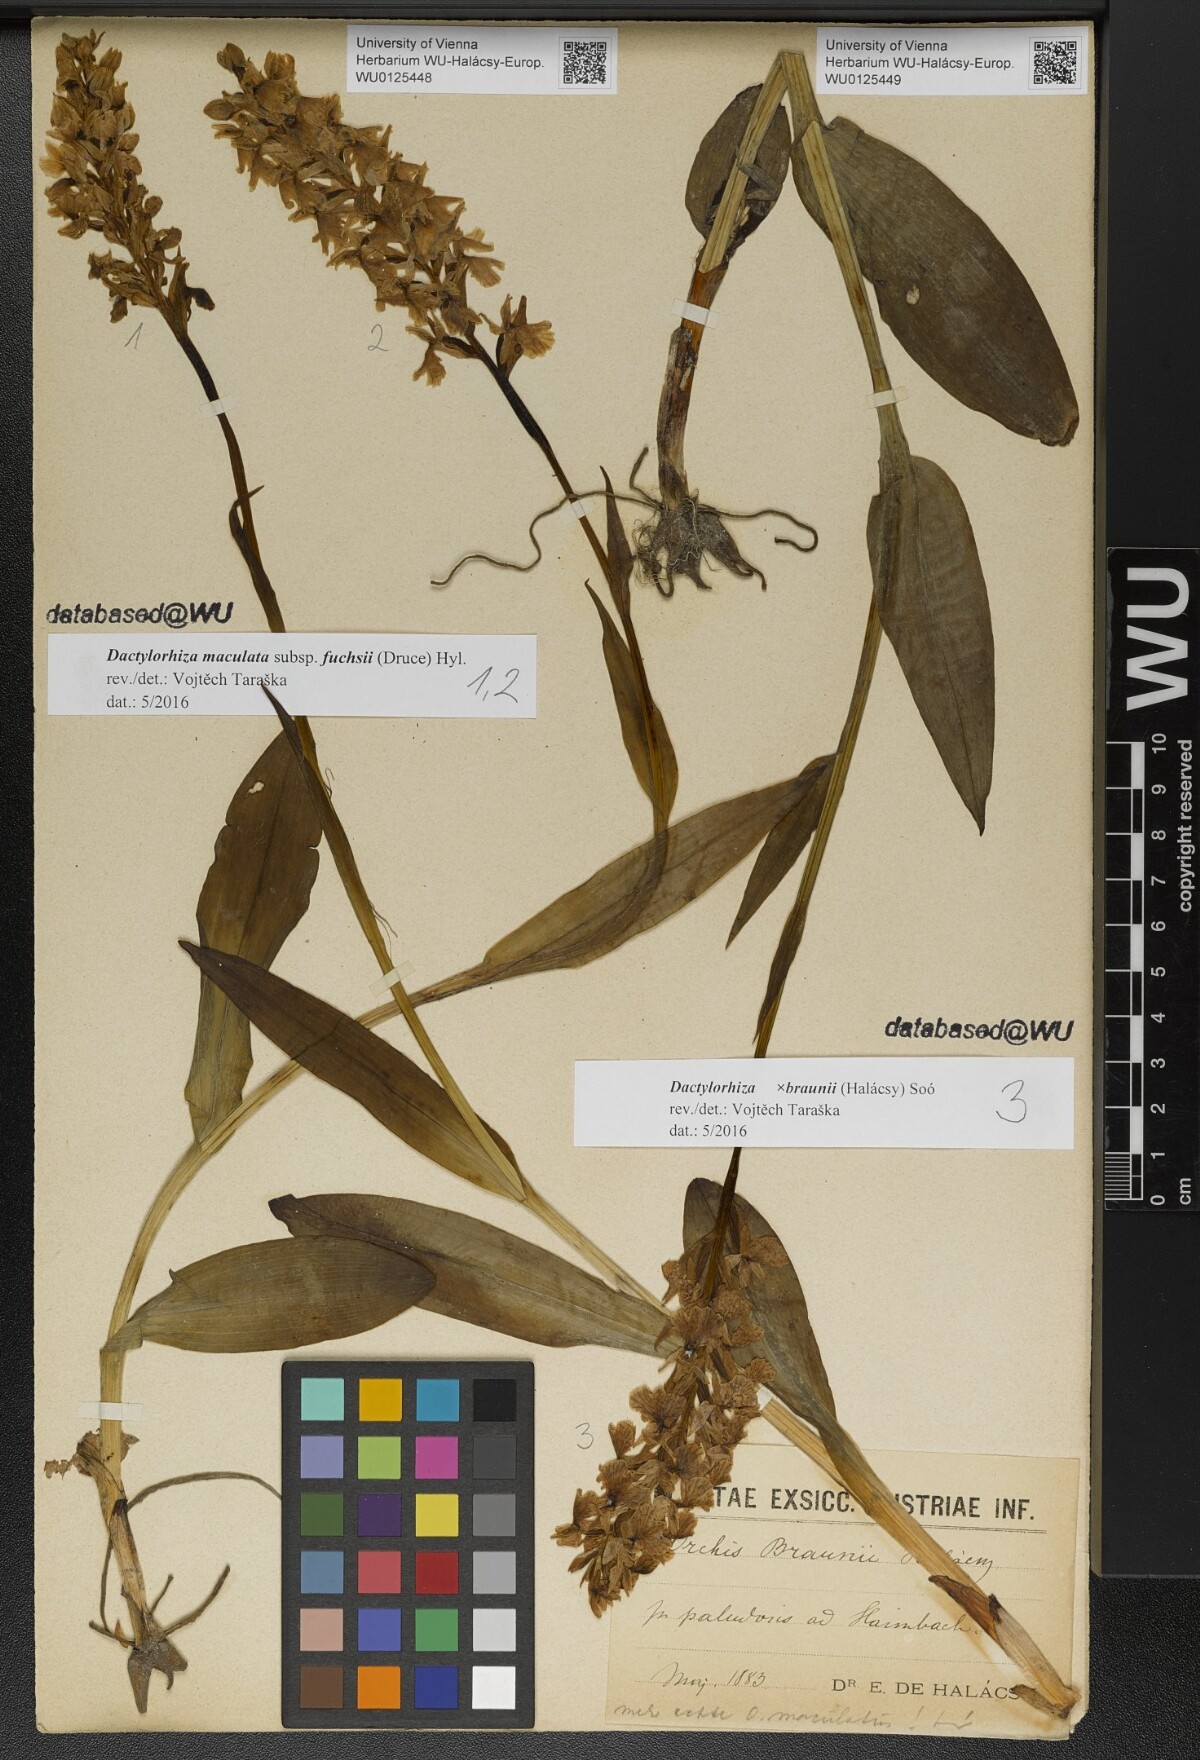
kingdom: Plantae
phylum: Tracheophyta
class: Liliopsida
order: Asparagales
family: Orchidaceae
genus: Dactylorhiza
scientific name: Dactylorhiza maculata
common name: Heath spotted-orchid
